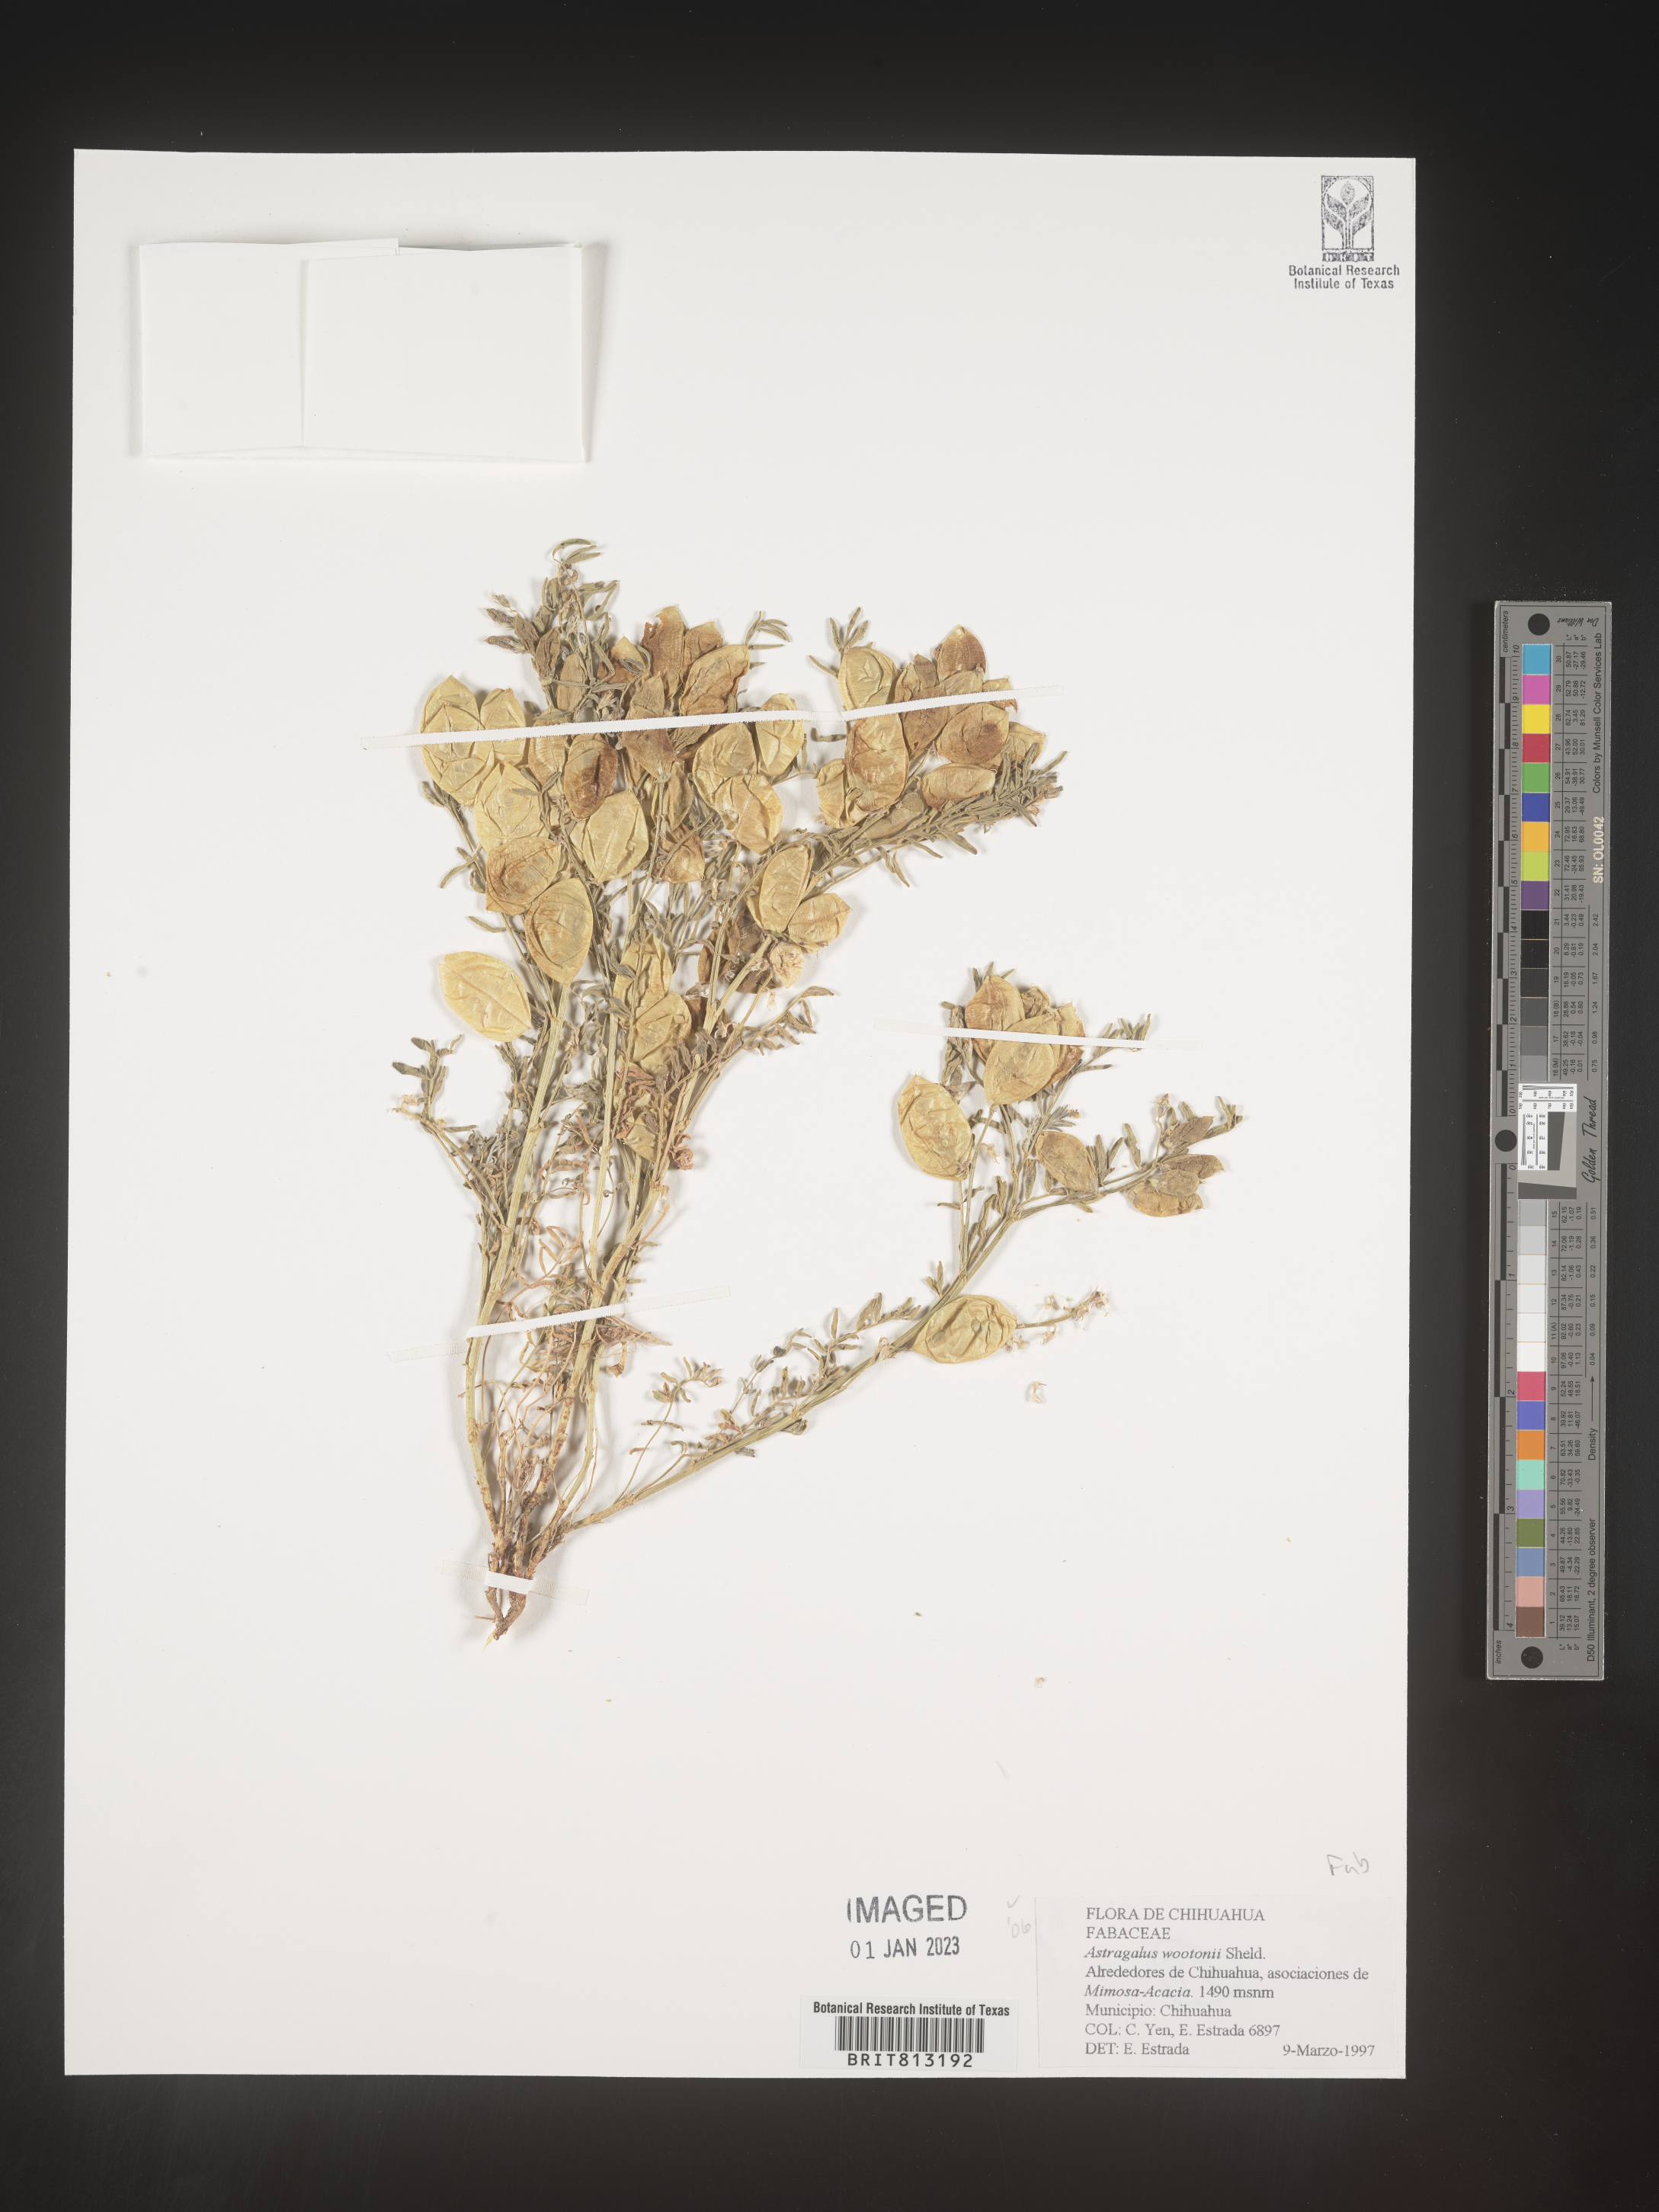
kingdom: Plantae
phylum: Tracheophyta
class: Magnoliopsida
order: Fabales
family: Fabaceae
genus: Astragalus
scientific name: Astragalus
